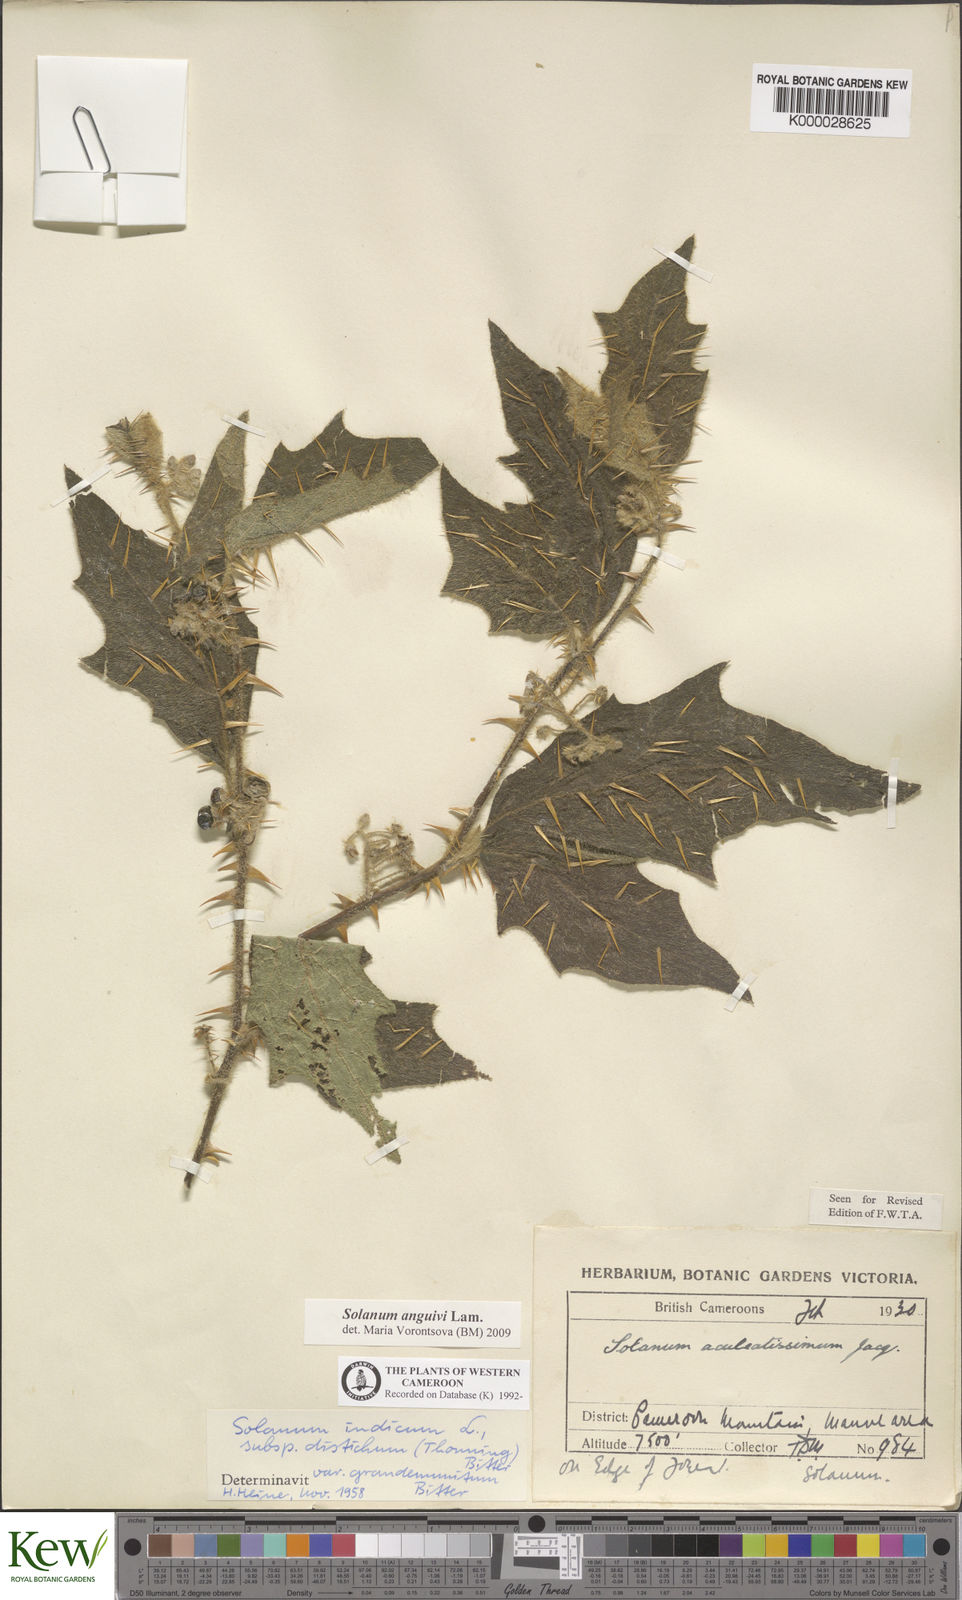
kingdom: Plantae
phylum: Tracheophyta
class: Magnoliopsida
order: Solanales
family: Solanaceae
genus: Solanum
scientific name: Solanum violaceum
